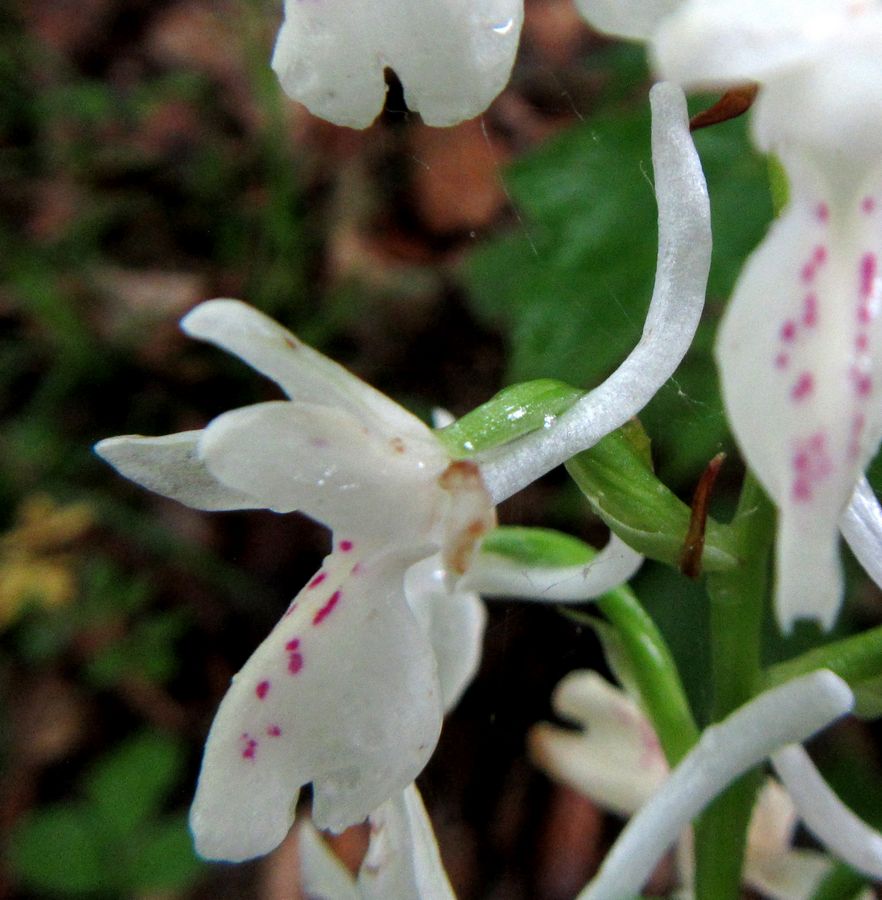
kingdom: Plantae
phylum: Tracheophyta
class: Liliopsida
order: Asparagales
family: Orchidaceae
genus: Orchis
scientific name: Orchis provincialis
